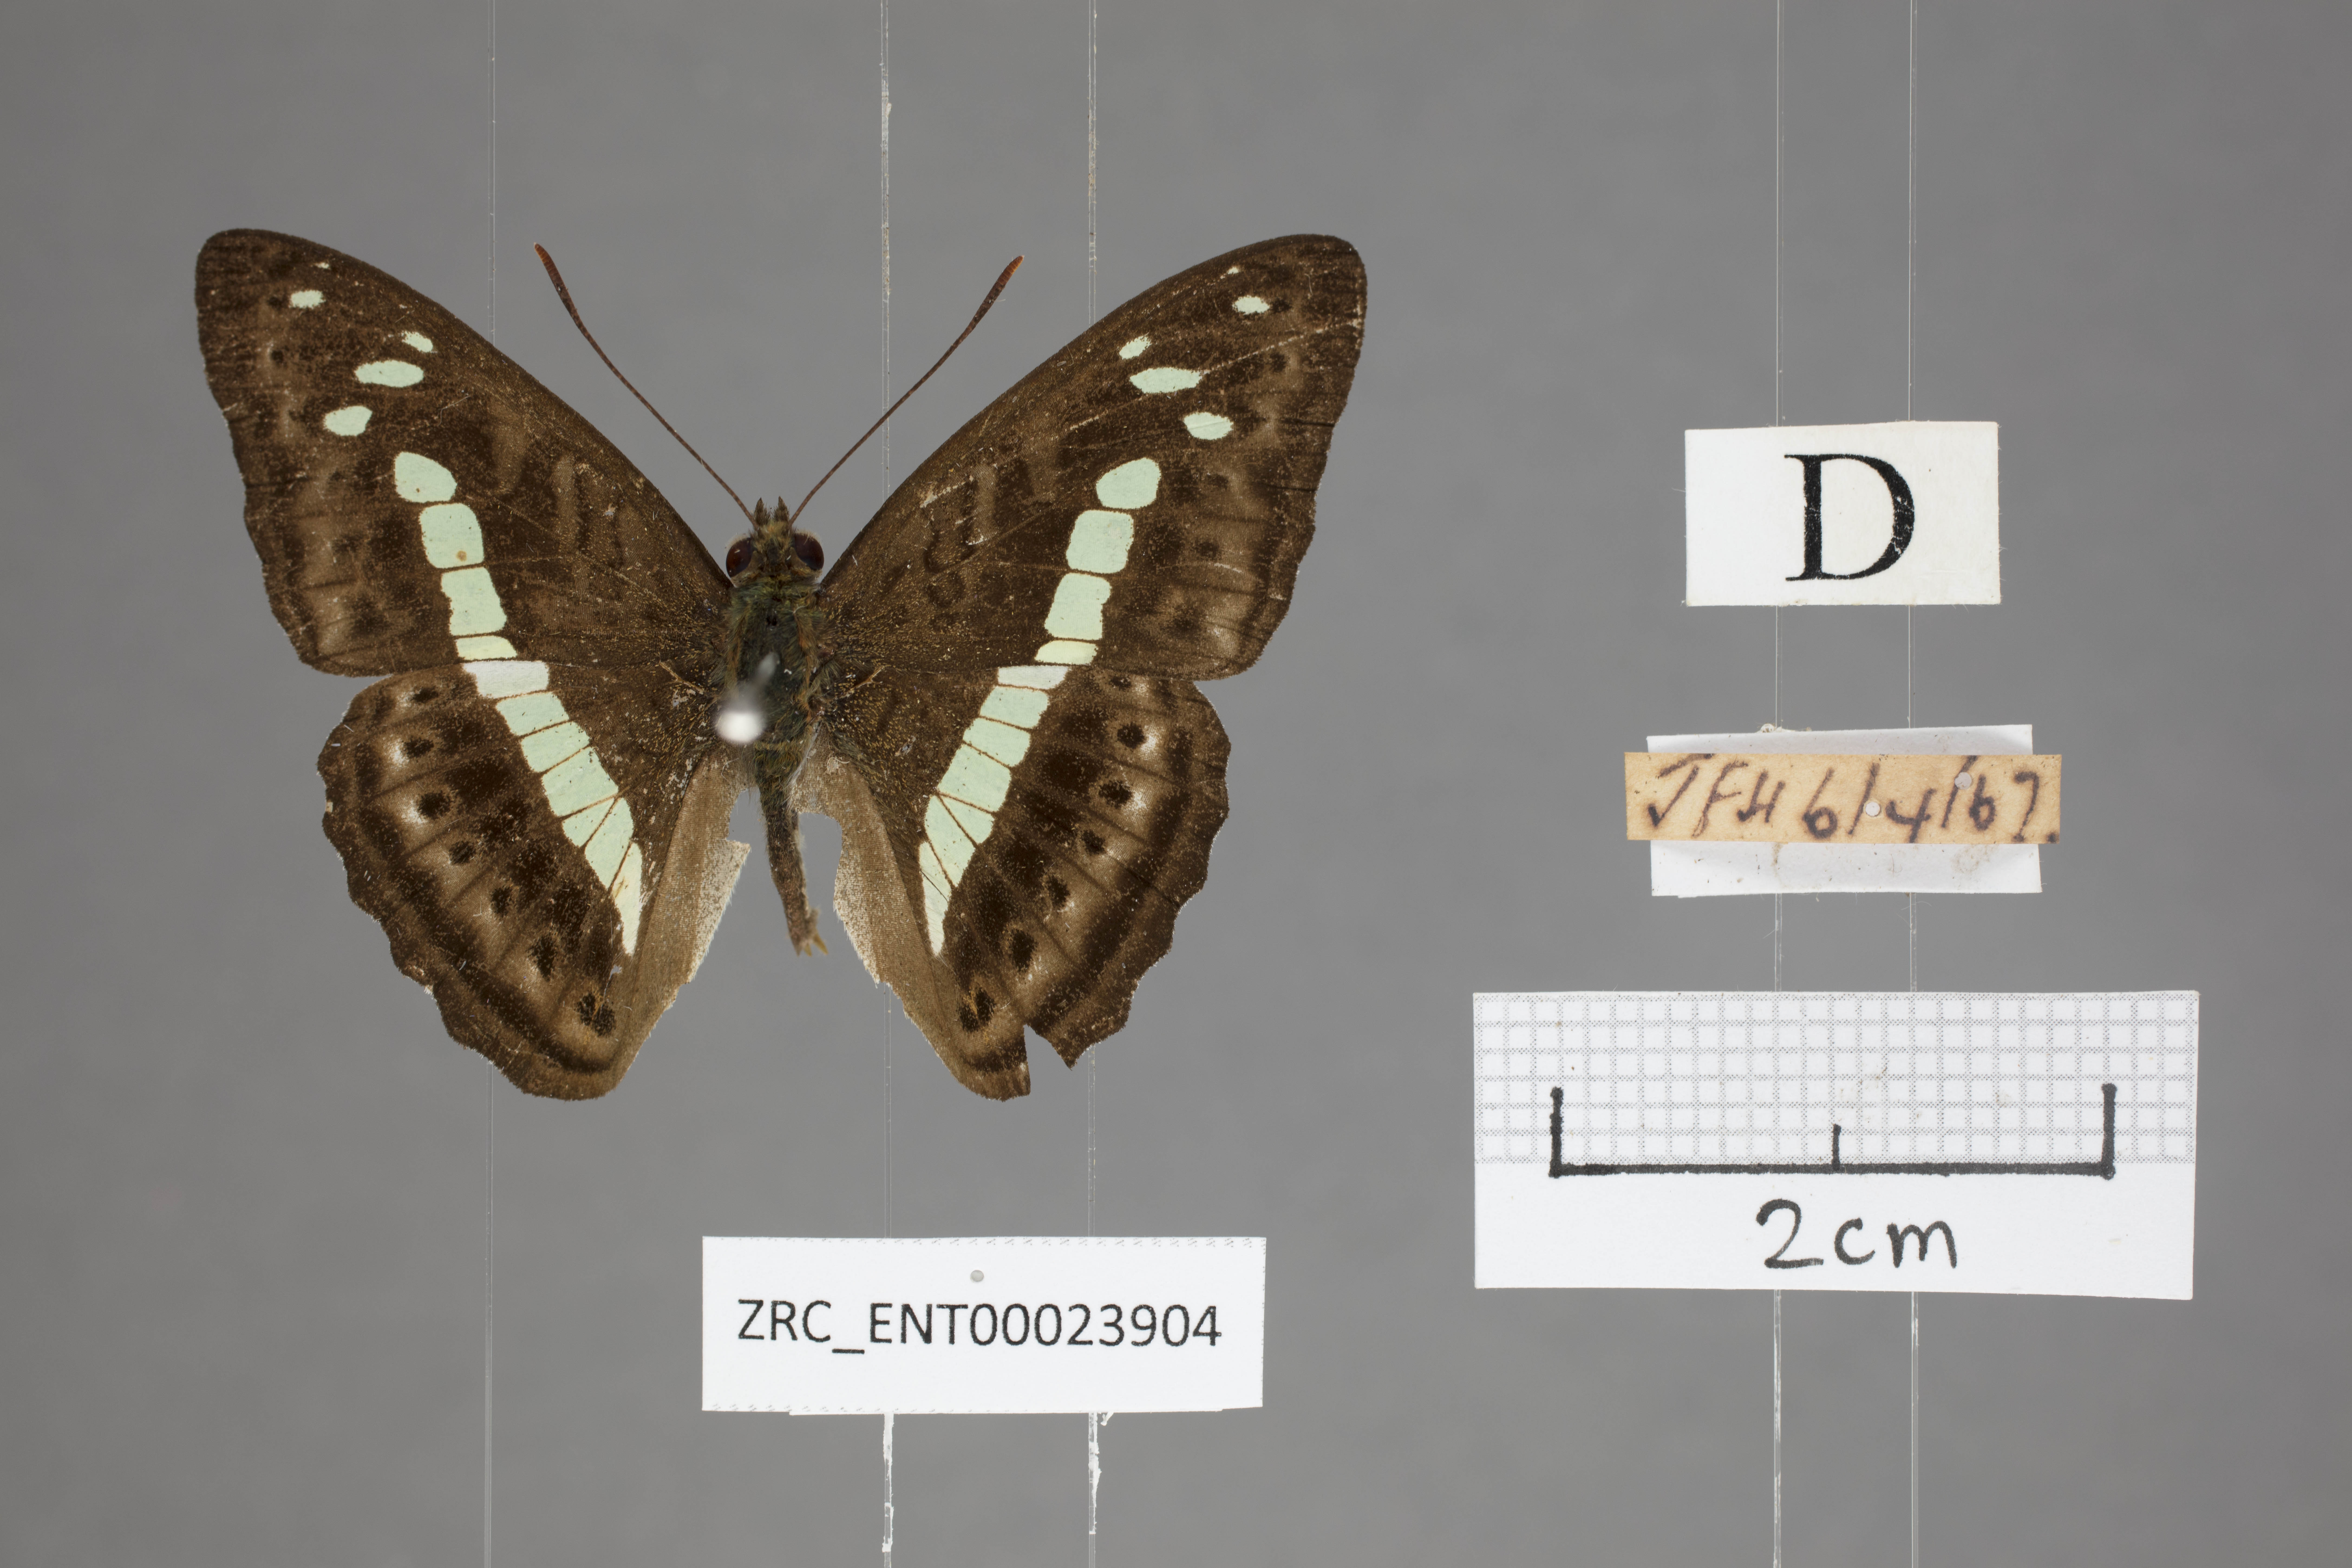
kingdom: Animalia
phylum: Arthropoda
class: Insecta
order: Lepidoptera
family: Nymphalidae
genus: Limenitis
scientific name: Limenitis
